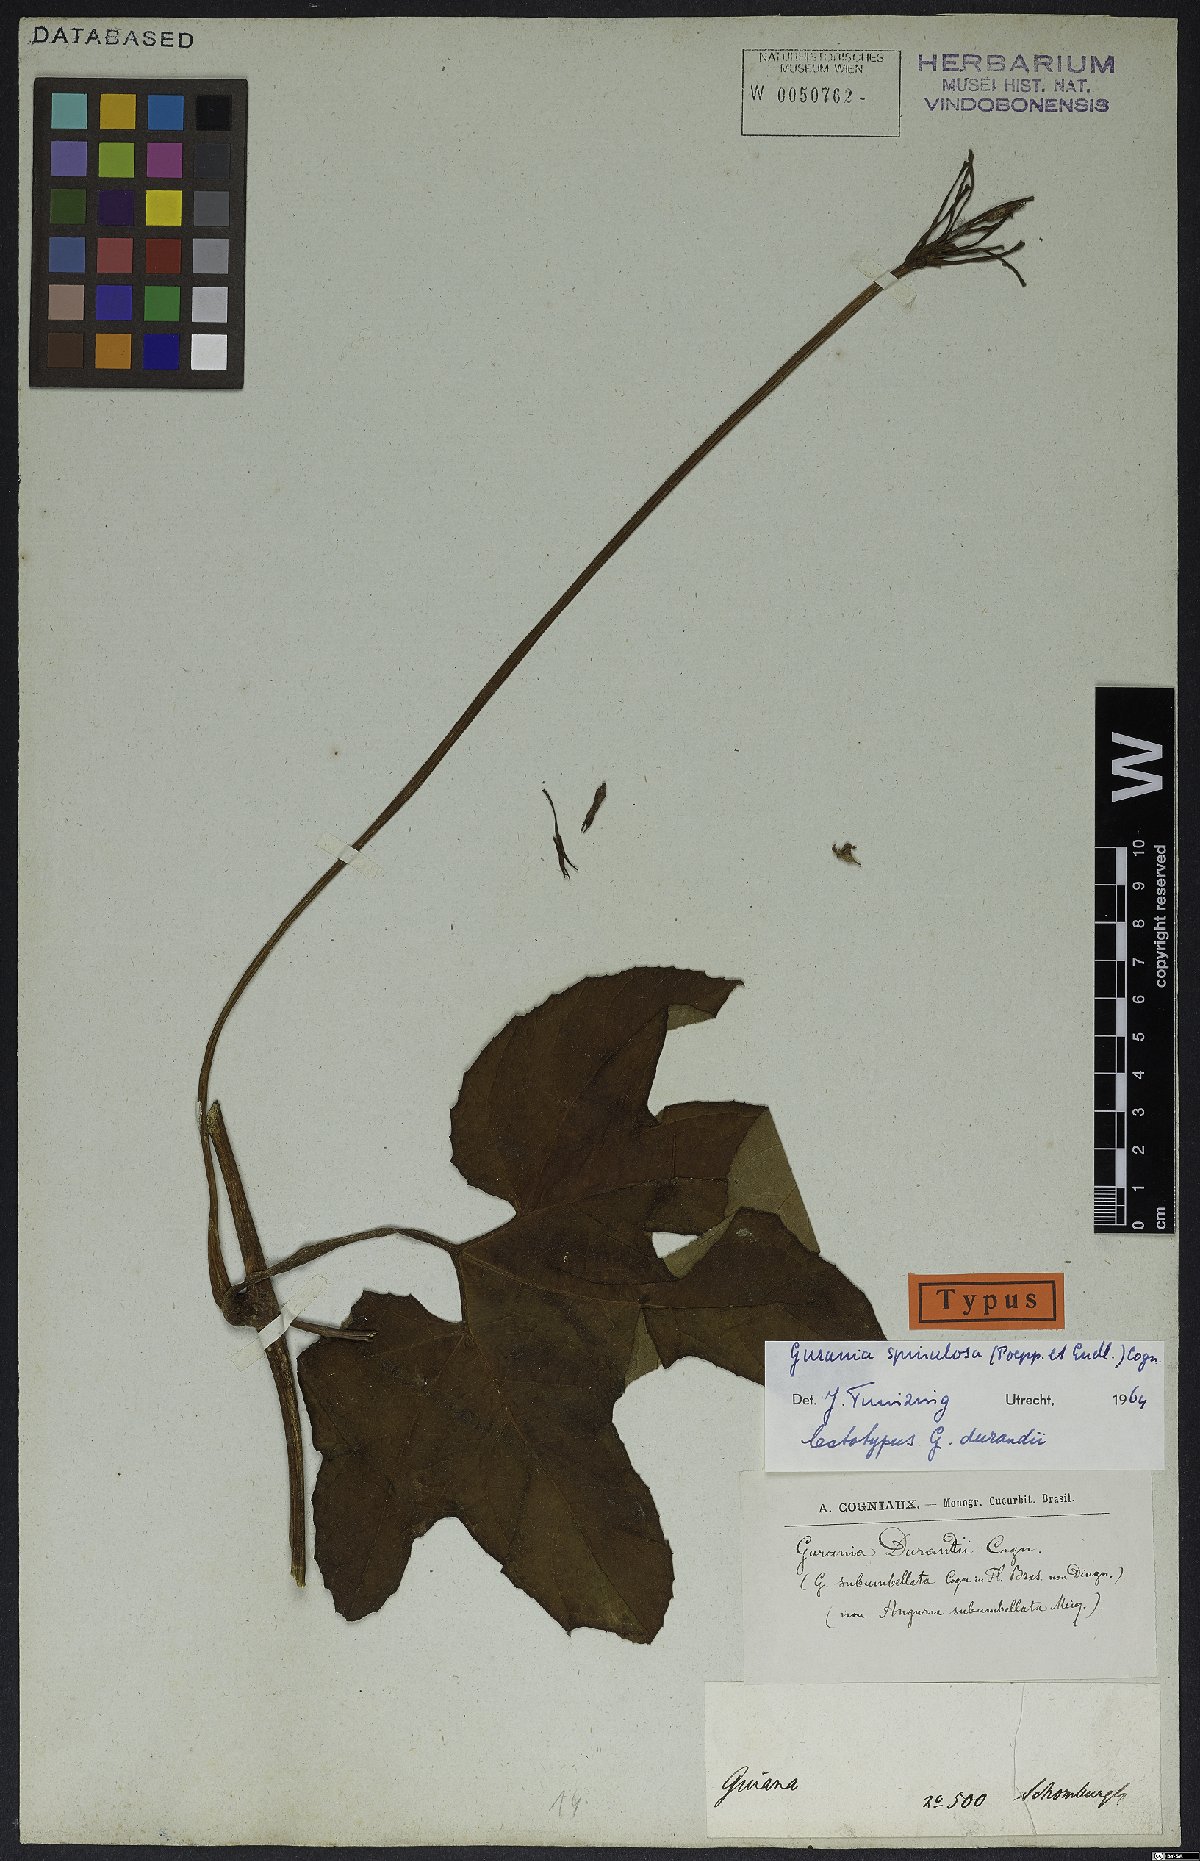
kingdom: Plantae
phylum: Tracheophyta
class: Magnoliopsida
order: Cucurbitales
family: Cucurbitaceae
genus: Gurania
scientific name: Gurania lobata
